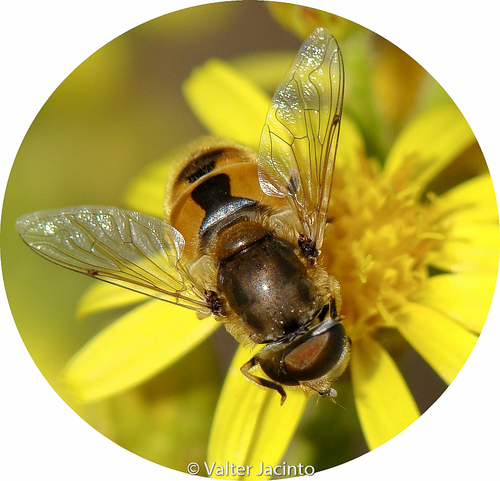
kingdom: Animalia
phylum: Arthropoda
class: Insecta
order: Diptera
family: Syrphidae
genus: Eristalis
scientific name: Eristalis arbustorum
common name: Hover fly
